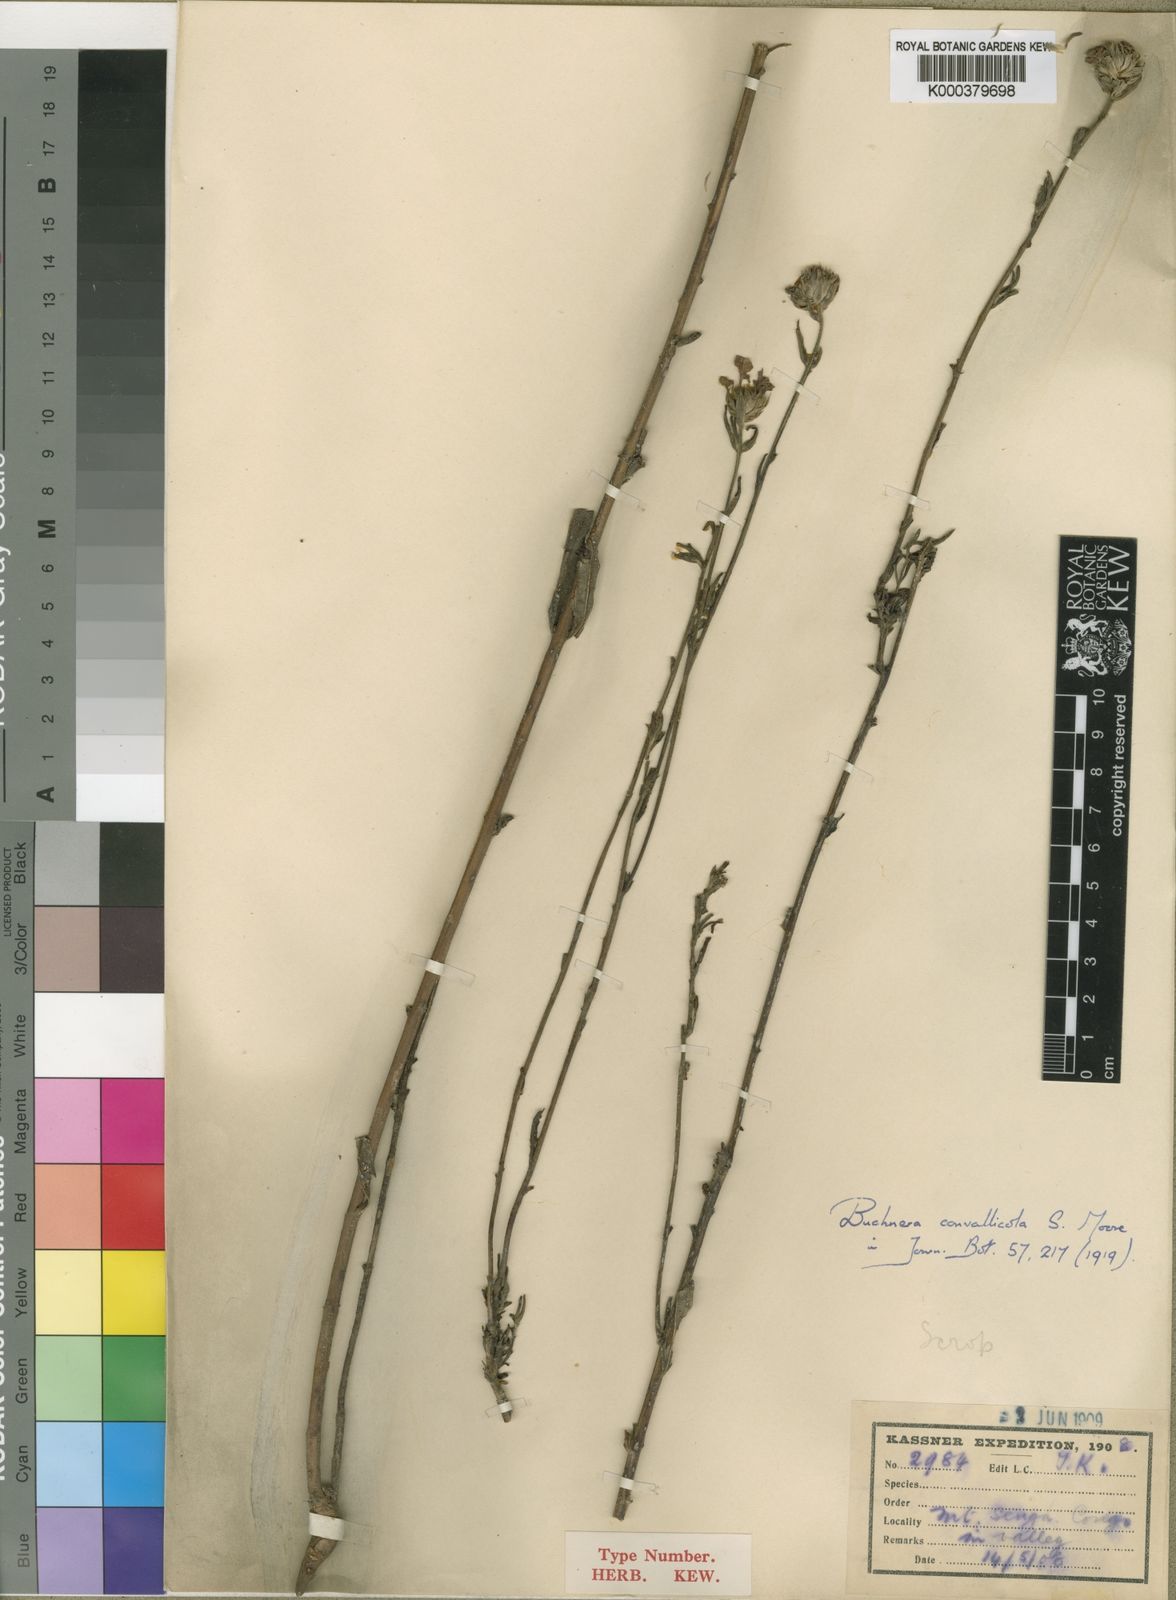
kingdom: Plantae
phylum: Tracheophyta
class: Magnoliopsida
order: Lamiales
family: Orobanchaceae
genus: Buchnera
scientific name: Buchnera cryptocephala
